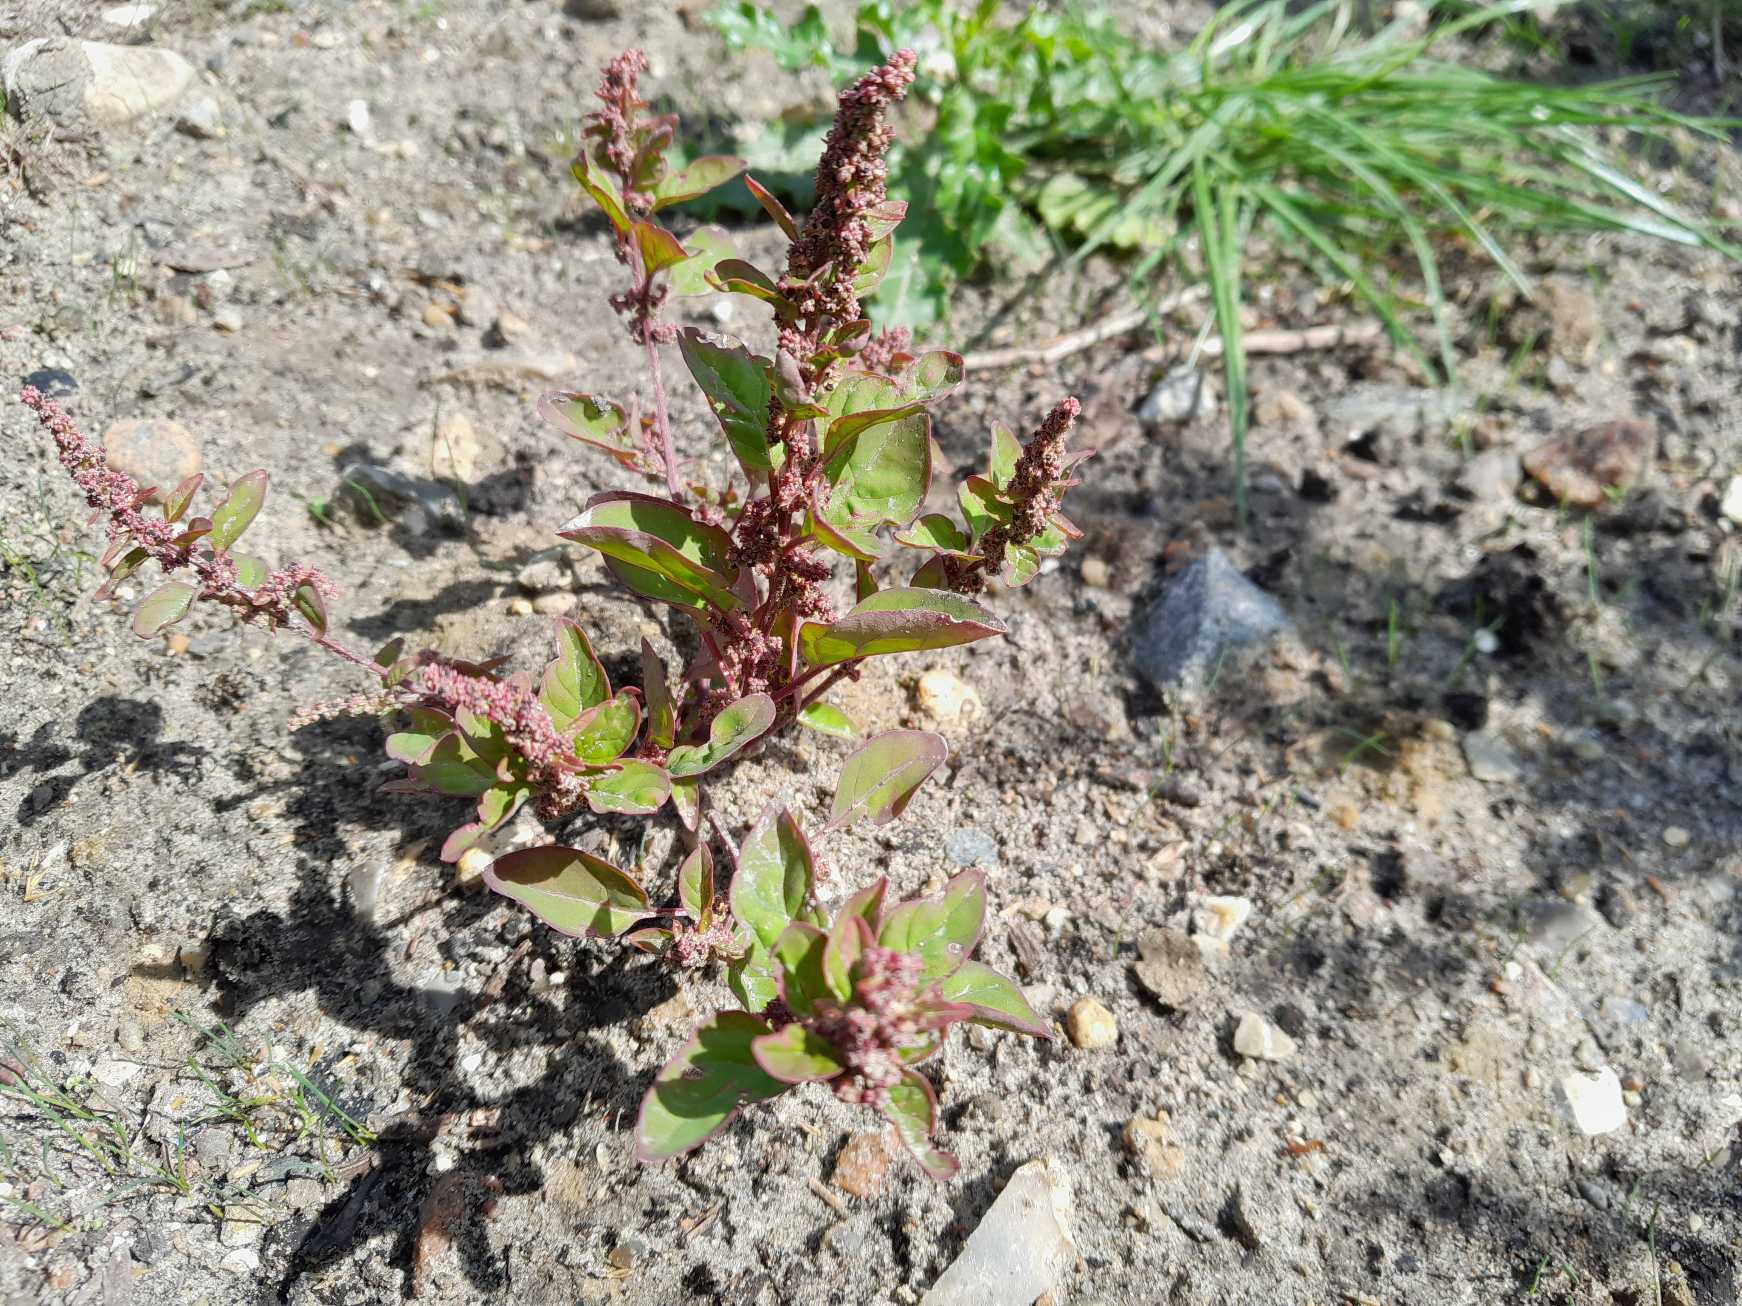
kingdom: Plantae
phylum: Tracheophyta
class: Magnoliopsida
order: Caryophyllales
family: Amaranthaceae
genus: Lipandra
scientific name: Lipandra polysperma
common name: Mangefrøet gåsefod
